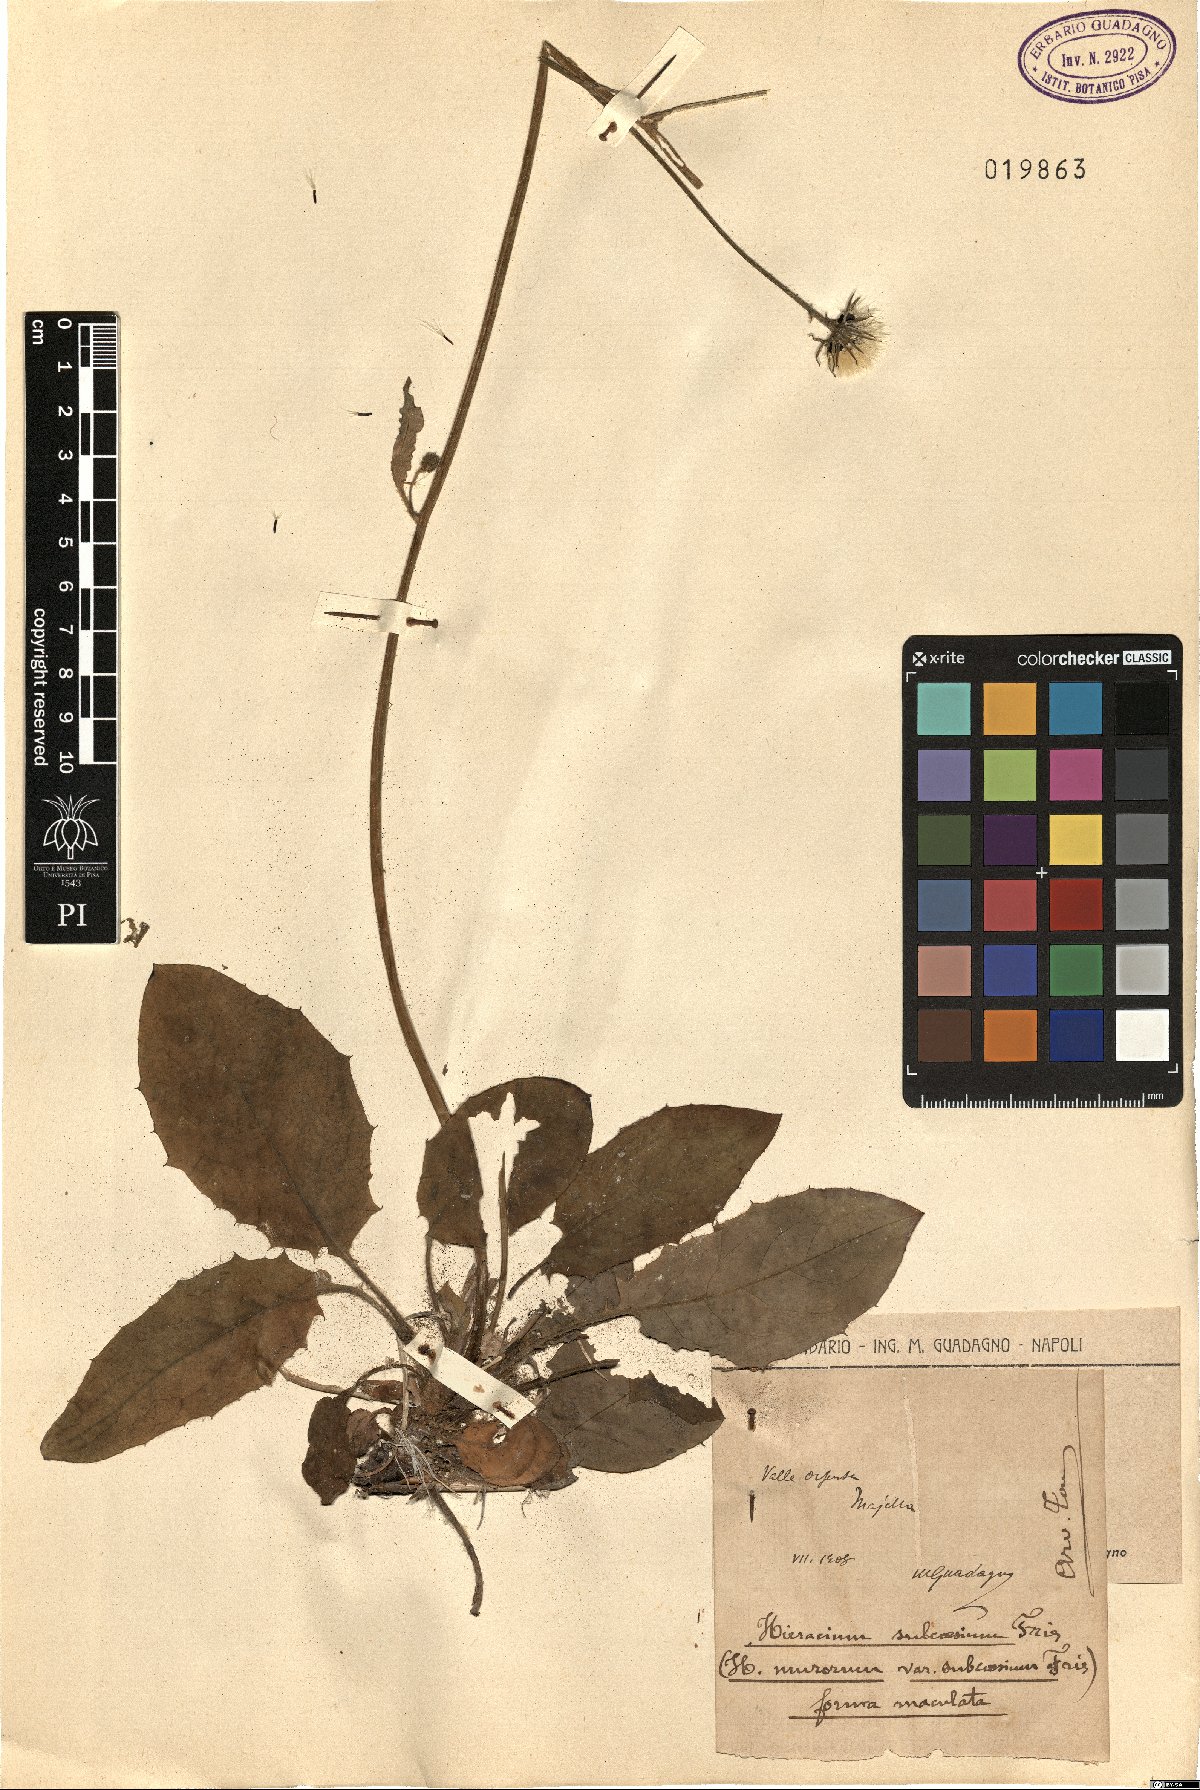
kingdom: Plantae
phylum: Tracheophyta
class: Magnoliopsida
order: Asterales
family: Asteraceae
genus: Hieracium
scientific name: Hieracium subcaesium
